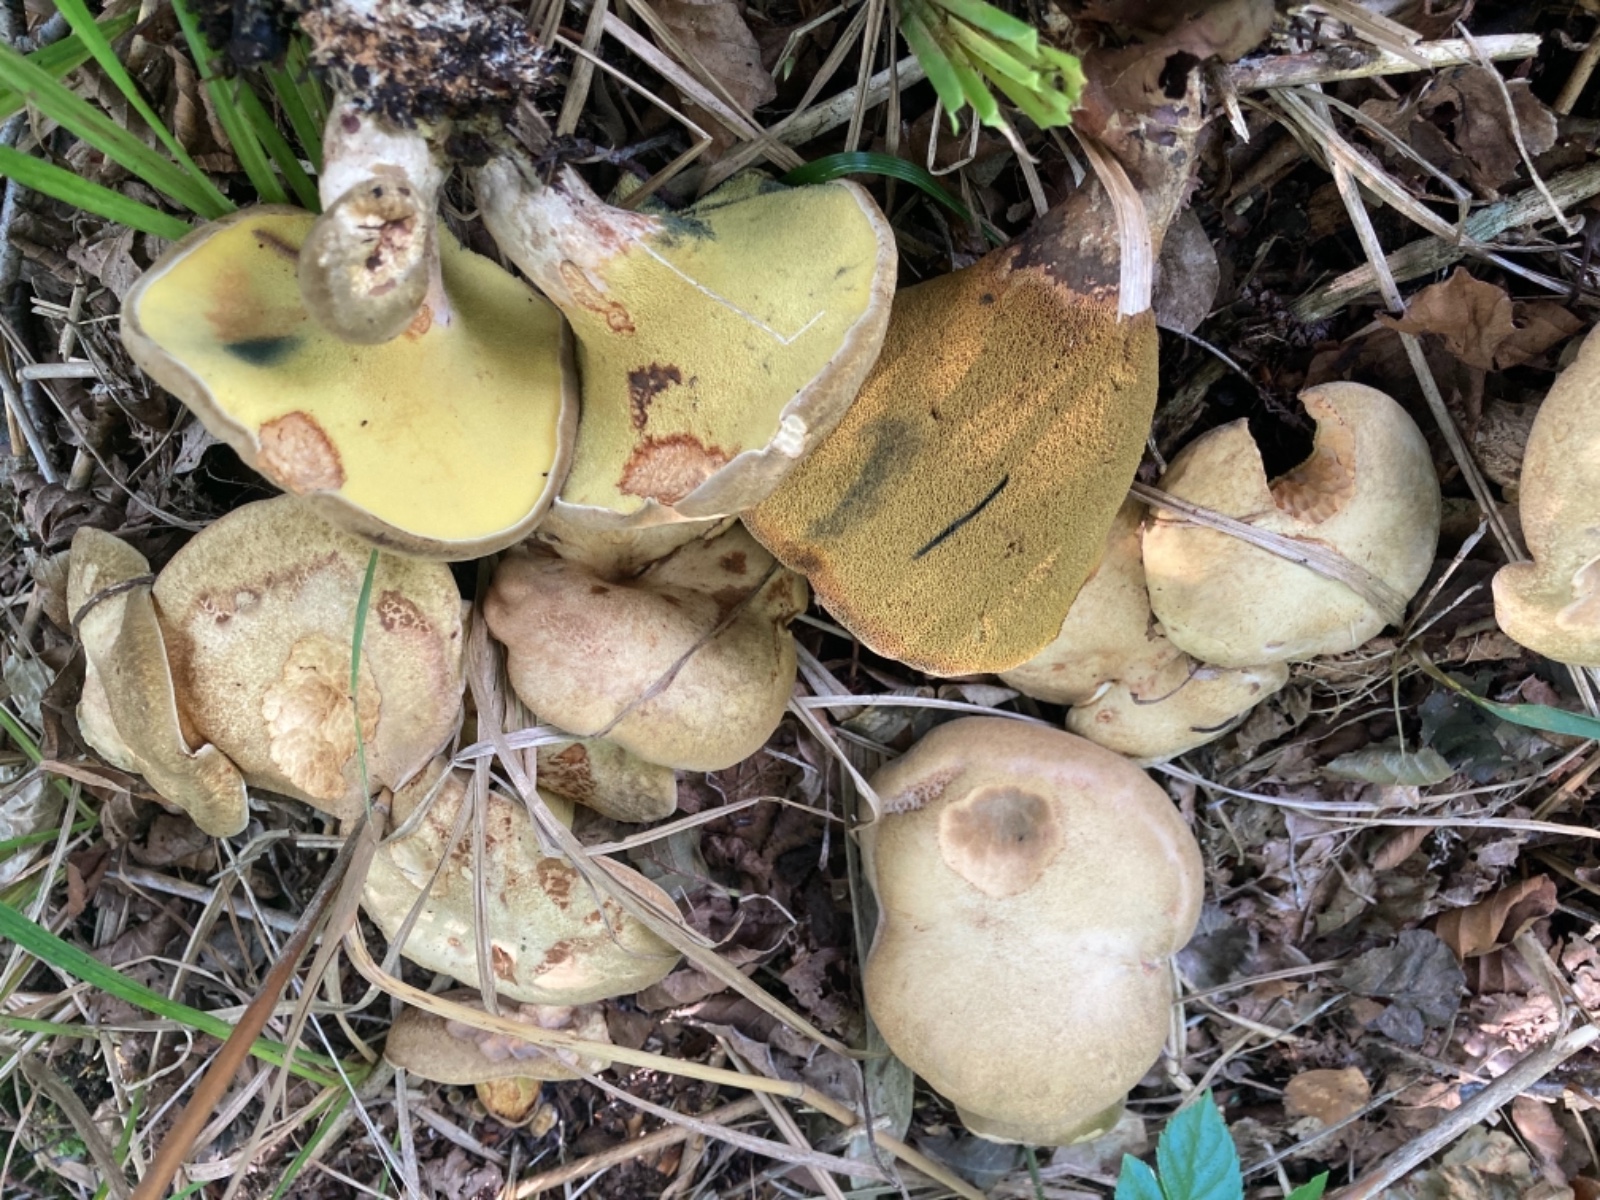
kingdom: Fungi
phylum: Basidiomycota
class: Agaricomycetes
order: Boletales
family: Paxillaceae
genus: Gyrodon
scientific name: Gyrodon lividus
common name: ellerørhat
